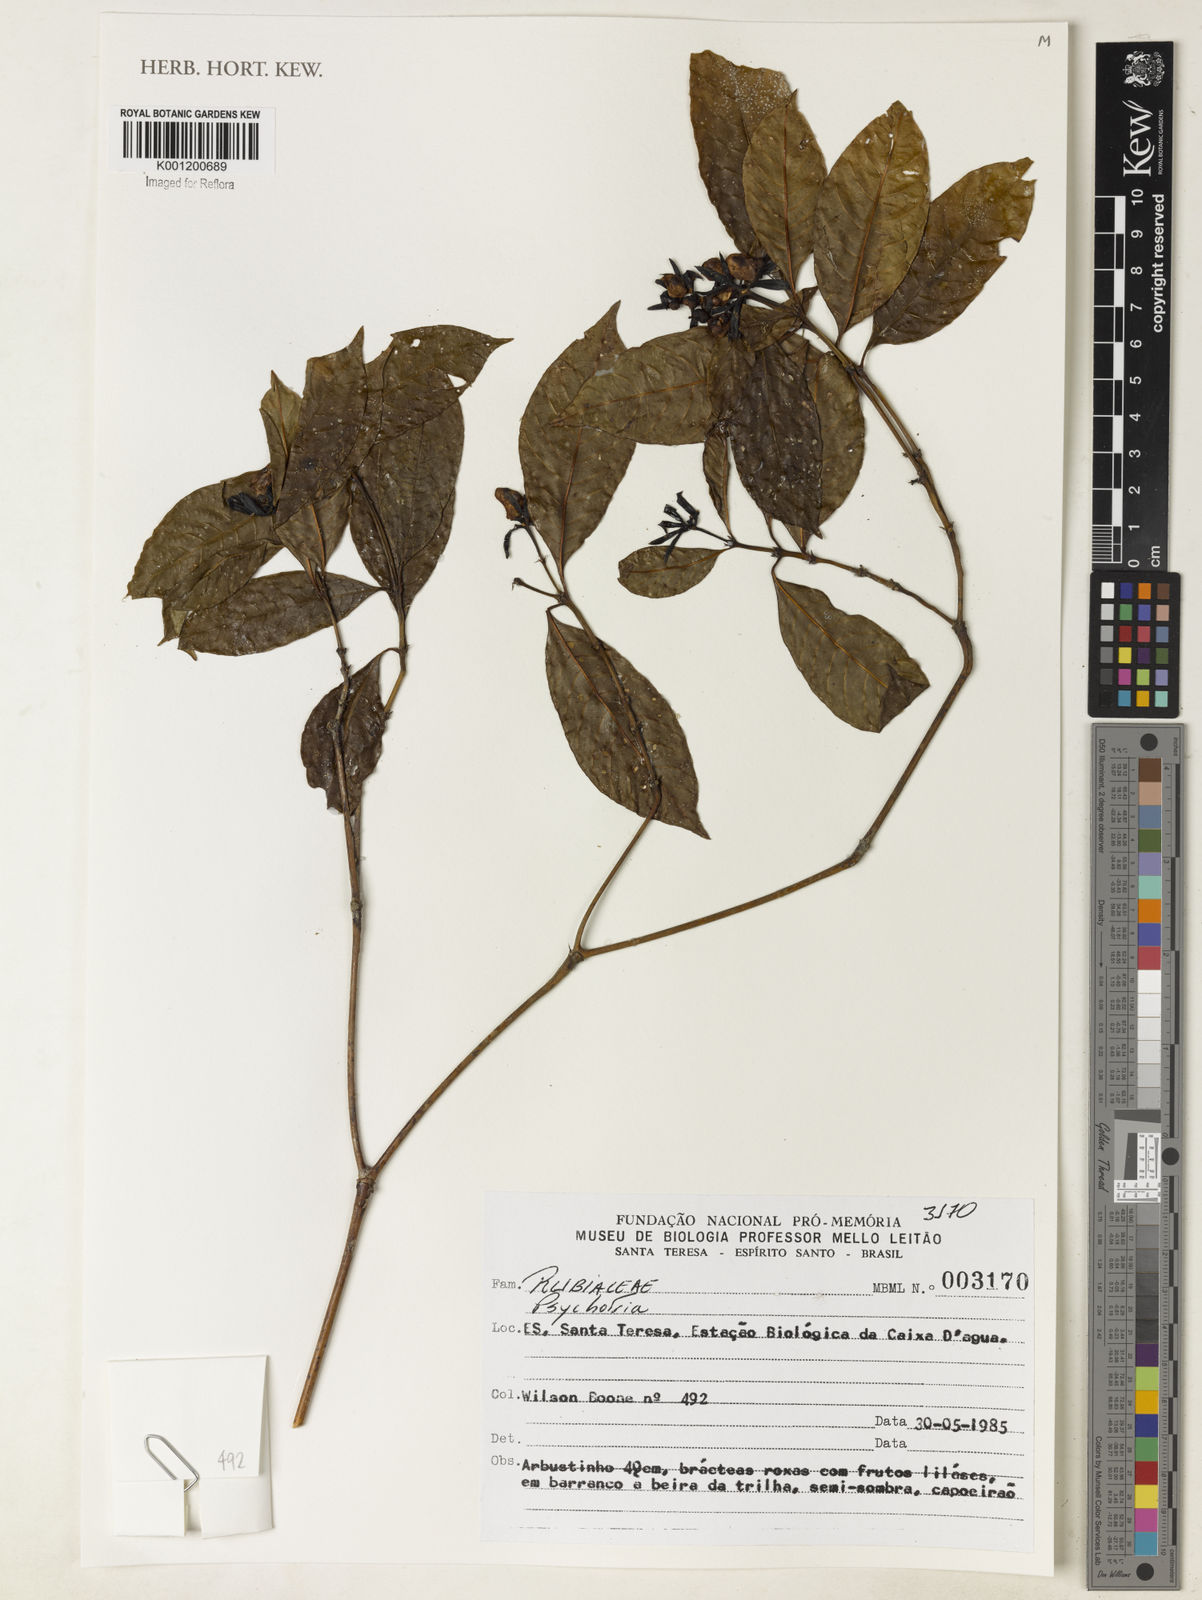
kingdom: Plantae
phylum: Tracheophyta
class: Magnoliopsida
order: Gentianales
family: Rubiaceae
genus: Psychotria
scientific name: Psychotria
